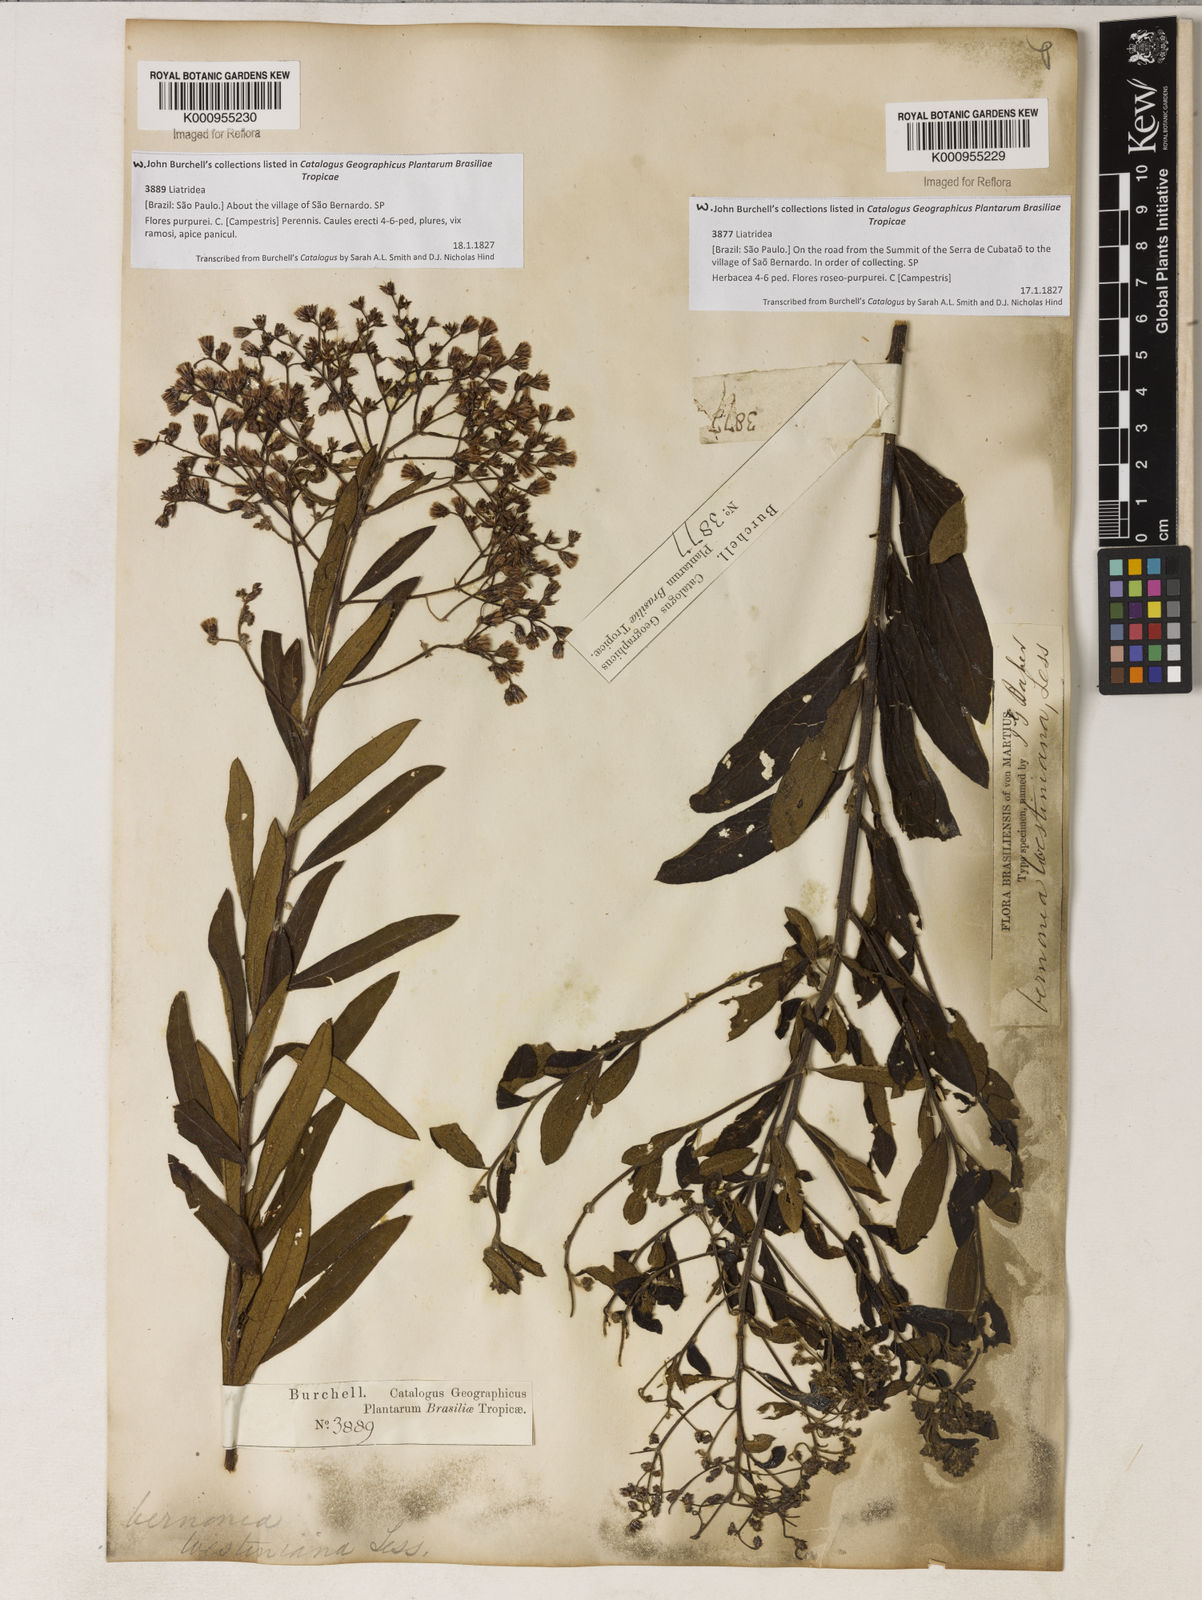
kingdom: Plantae
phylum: Tracheophyta
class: Magnoliopsida
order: Asterales
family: Asteraceae
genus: Vernonanthura
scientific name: Vernonanthura westiniana
